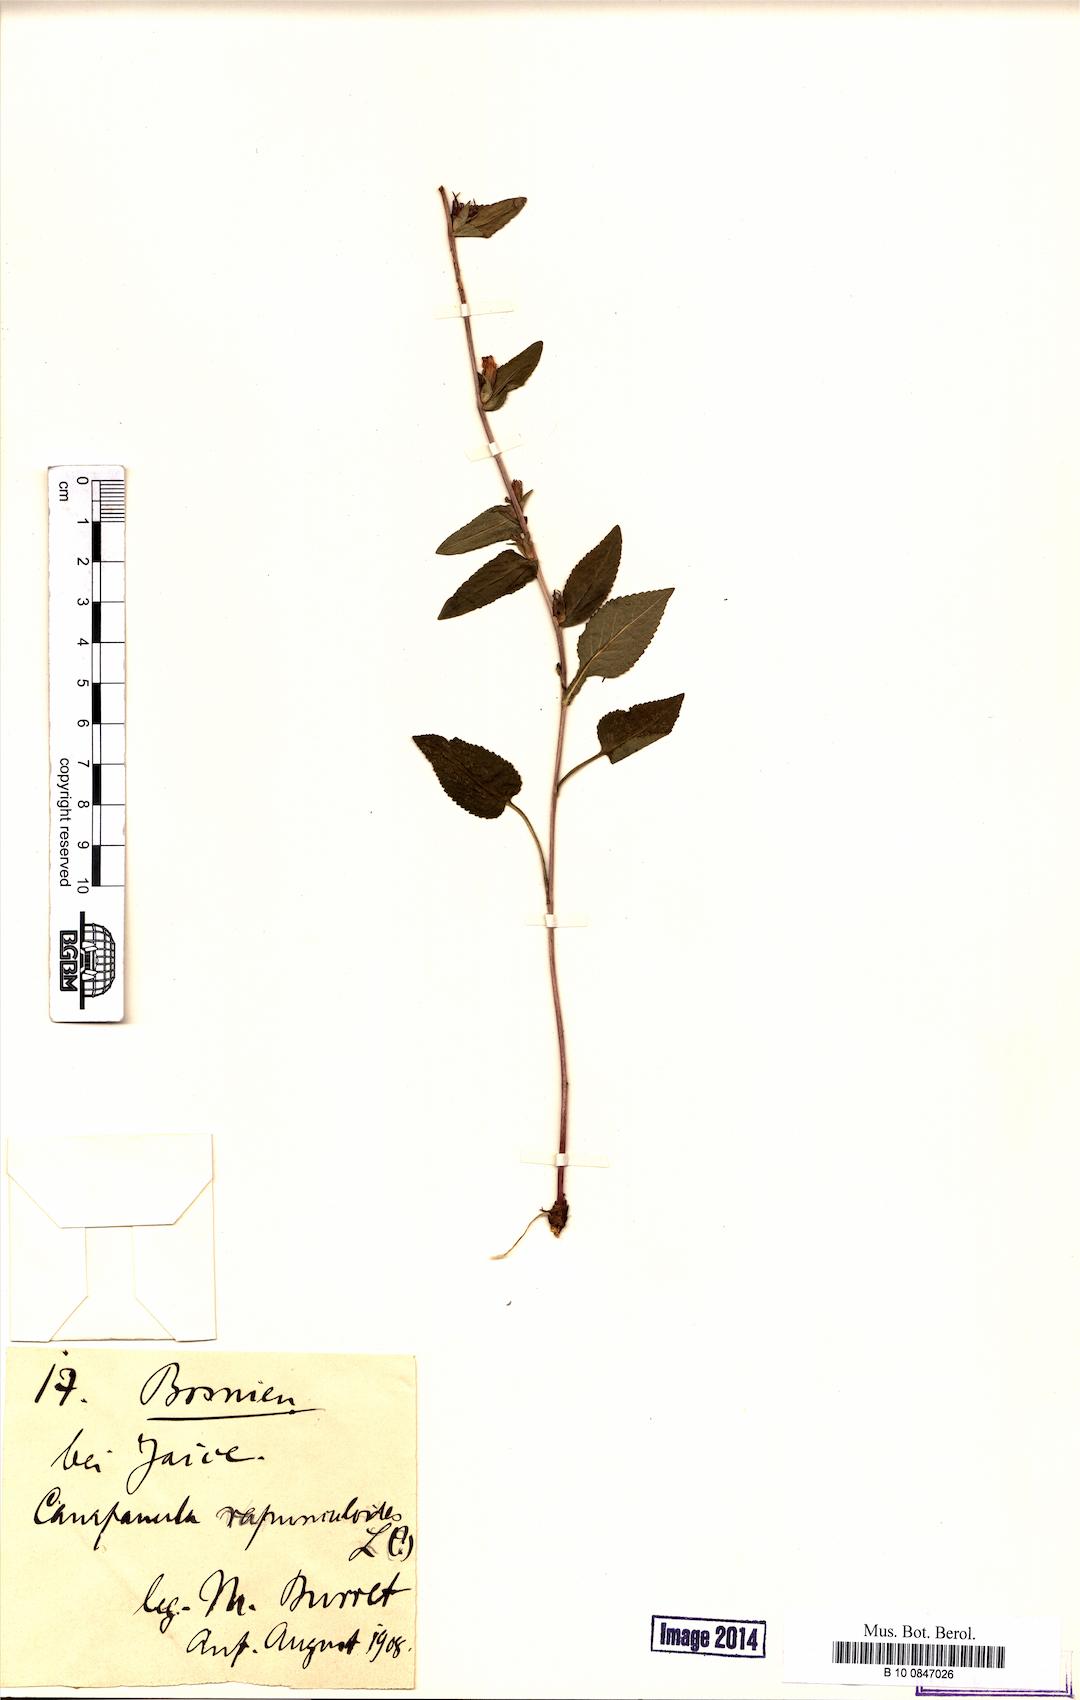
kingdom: Plantae
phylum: Tracheophyta
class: Magnoliopsida
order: Asterales
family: Campanulaceae
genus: Campanula
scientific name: Campanula rapunculoides
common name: Creeping bellflower
